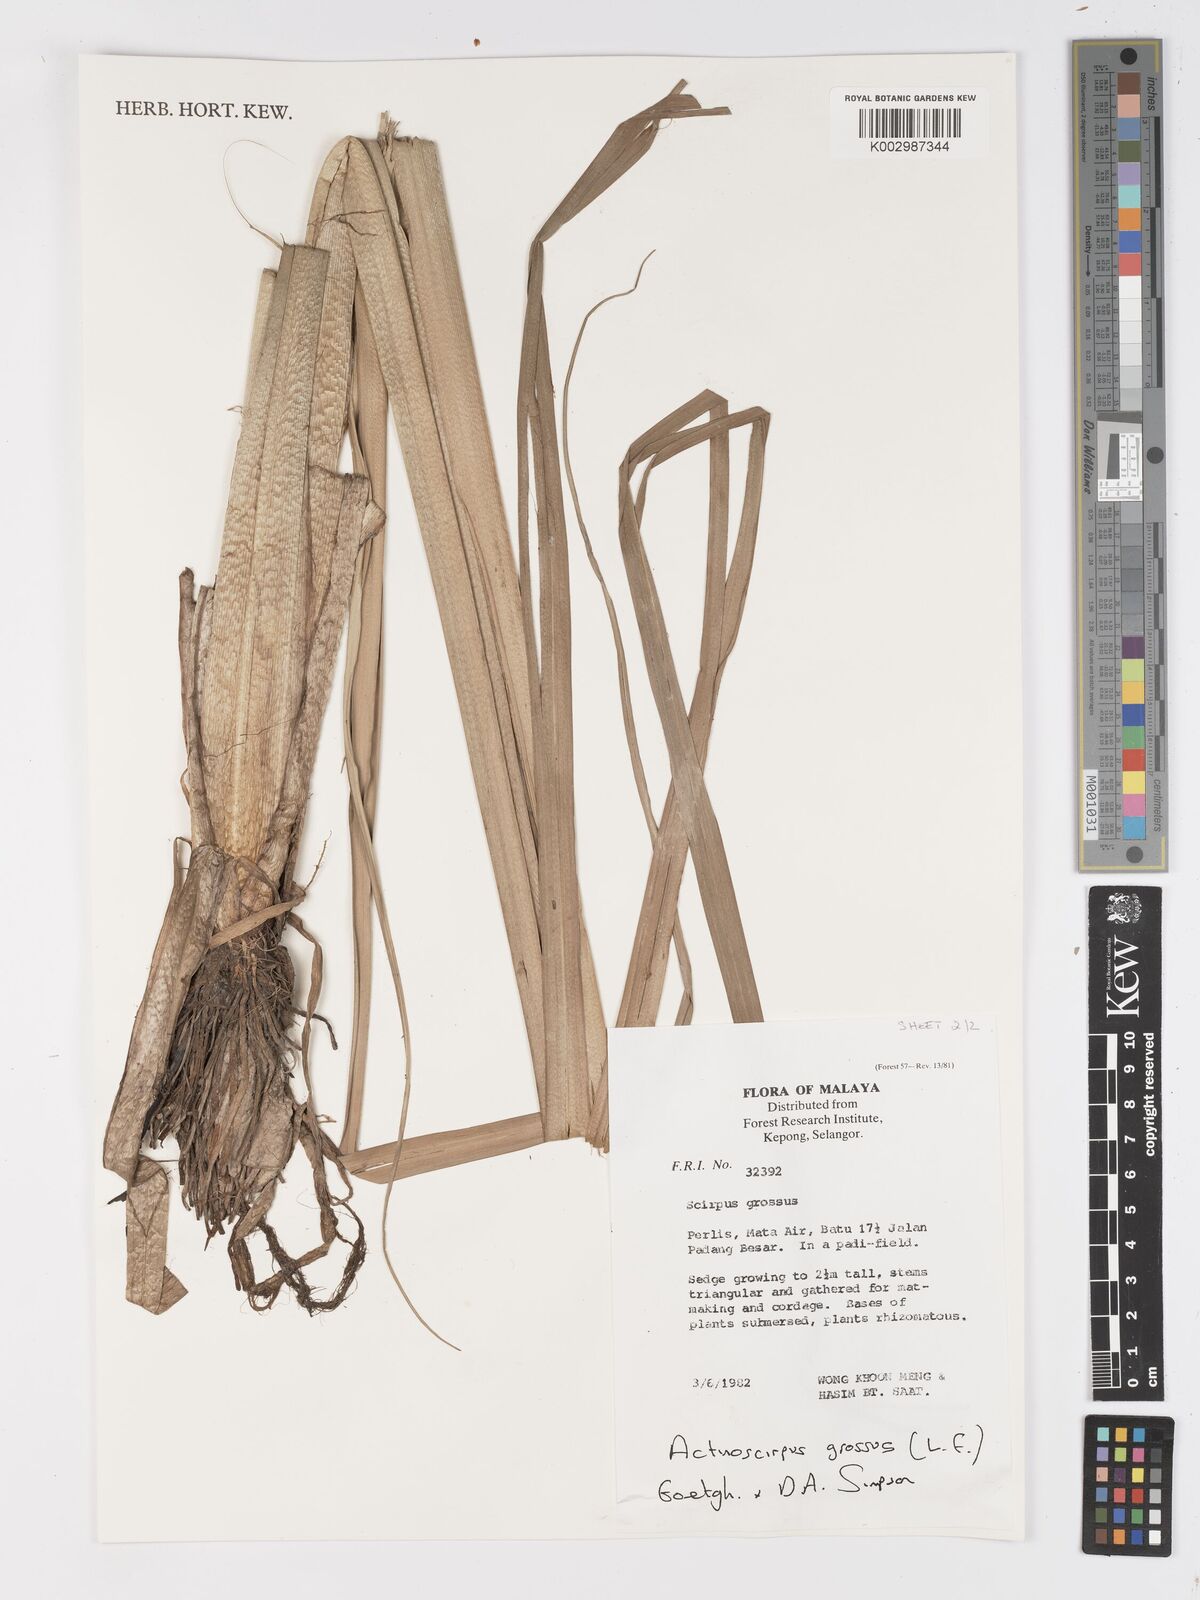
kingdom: Plantae
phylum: Tracheophyta
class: Liliopsida
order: Poales
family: Cyperaceae
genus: Actinoscirpus
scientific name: Actinoscirpus grossus
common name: Giant bur rush
